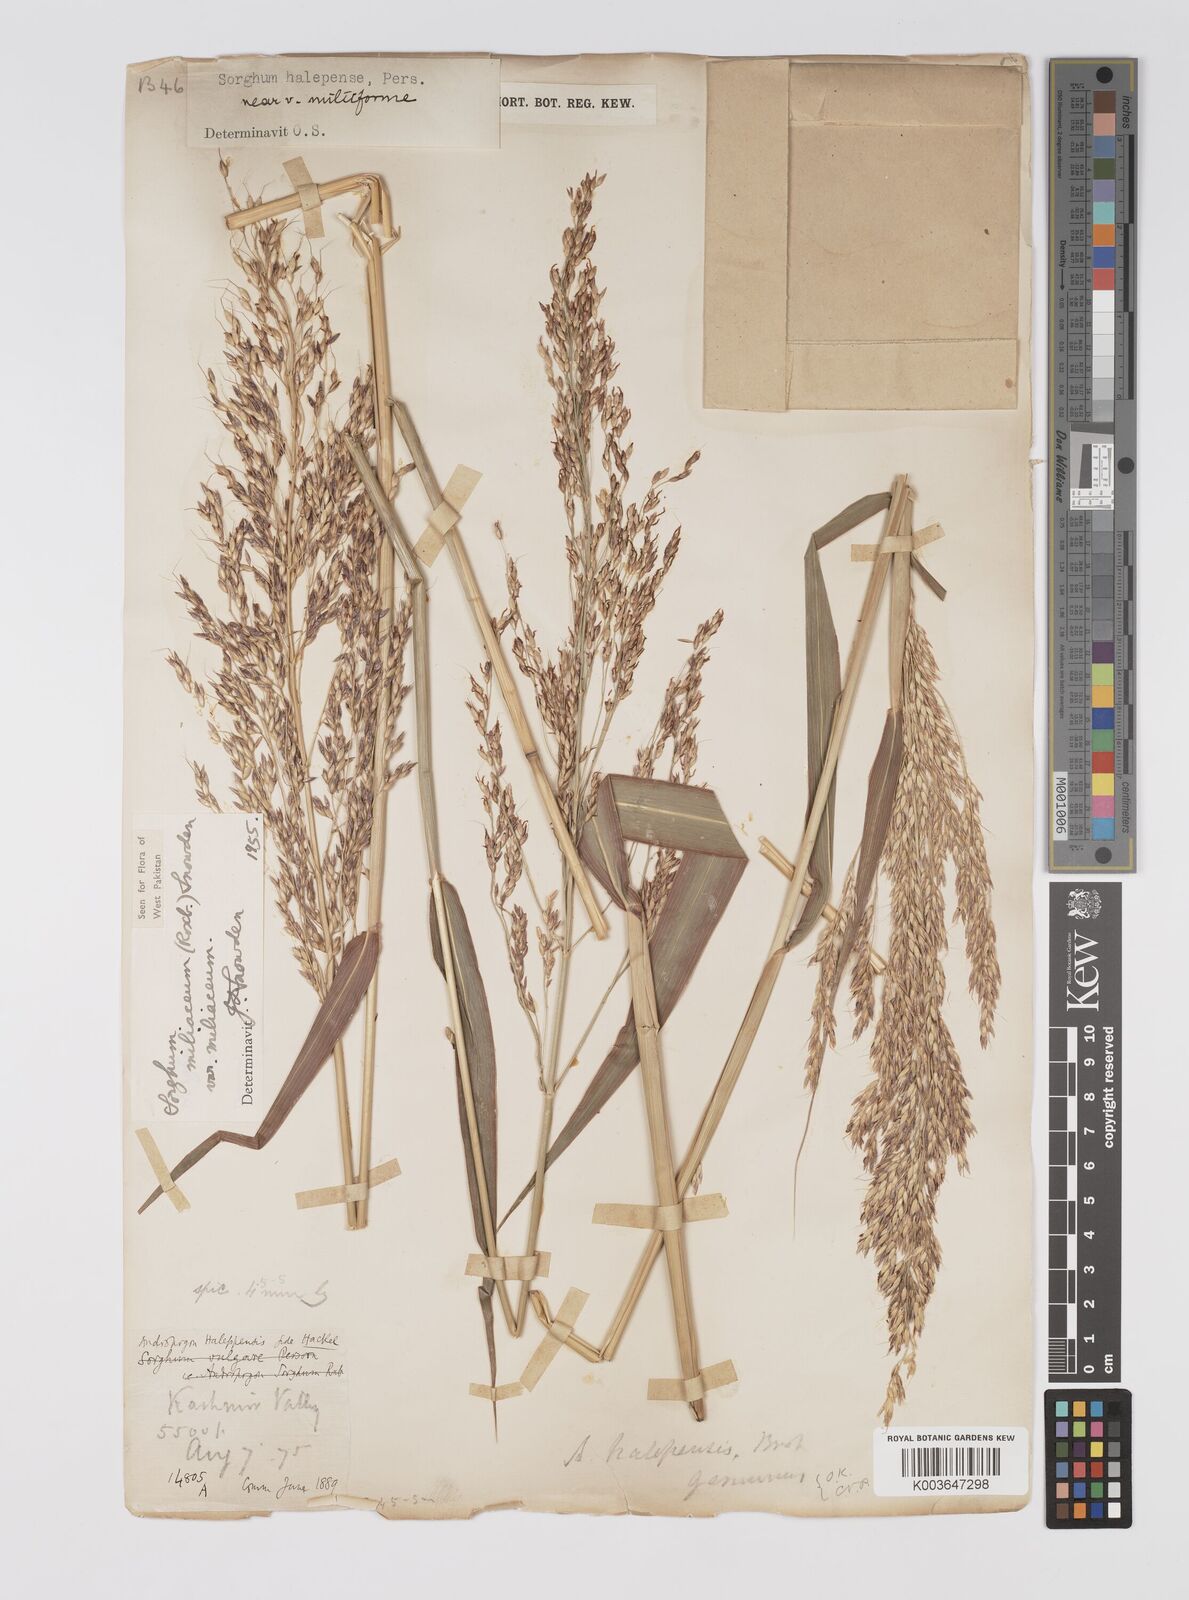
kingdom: Plantae
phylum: Tracheophyta
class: Liliopsida
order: Poales
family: Poaceae
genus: Sorghum
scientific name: Sorghum halepense
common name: Johnson-grass
